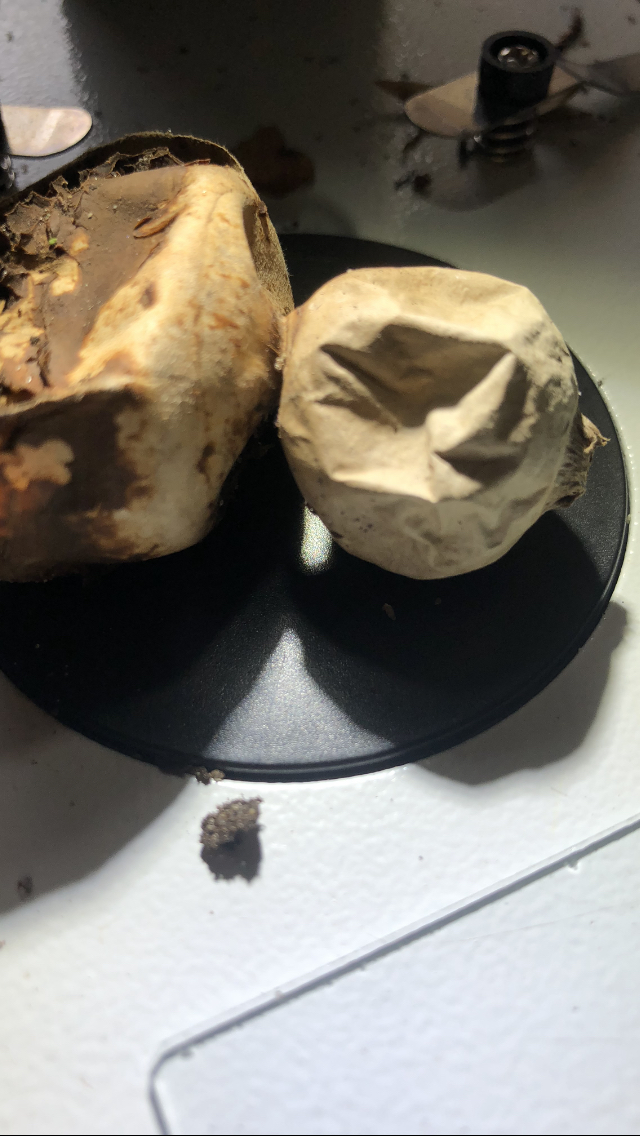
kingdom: Fungi
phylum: Basidiomycota
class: Agaricomycetes
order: Geastrales
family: Geastraceae
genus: Geastrum
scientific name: Geastrum michelianum
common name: kødet stjernebold
